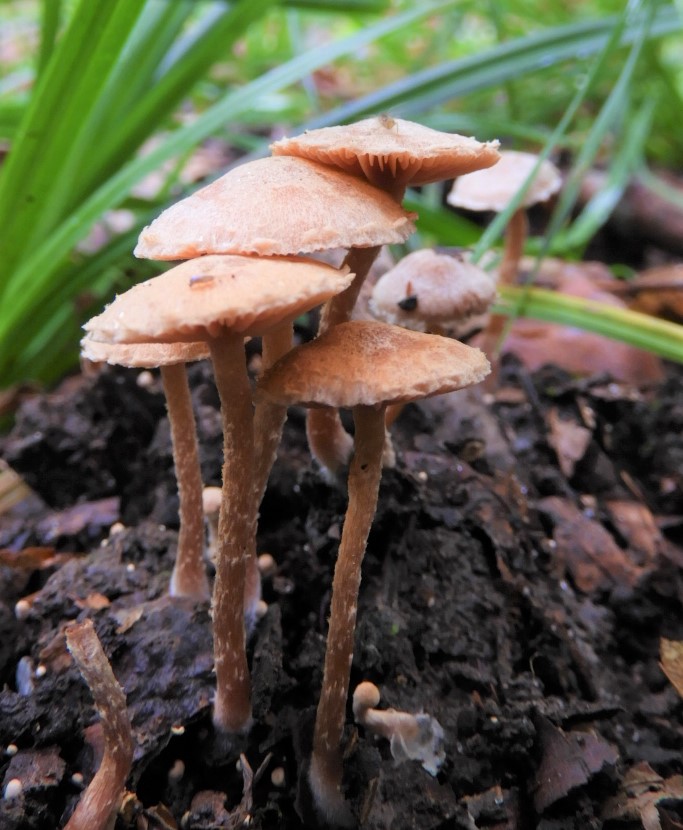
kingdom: Fungi
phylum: Basidiomycota
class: Agaricomycetes
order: Agaricales
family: Tubariaceae
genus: Tubaria
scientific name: Tubaria conspersa
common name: bleg fnughat
